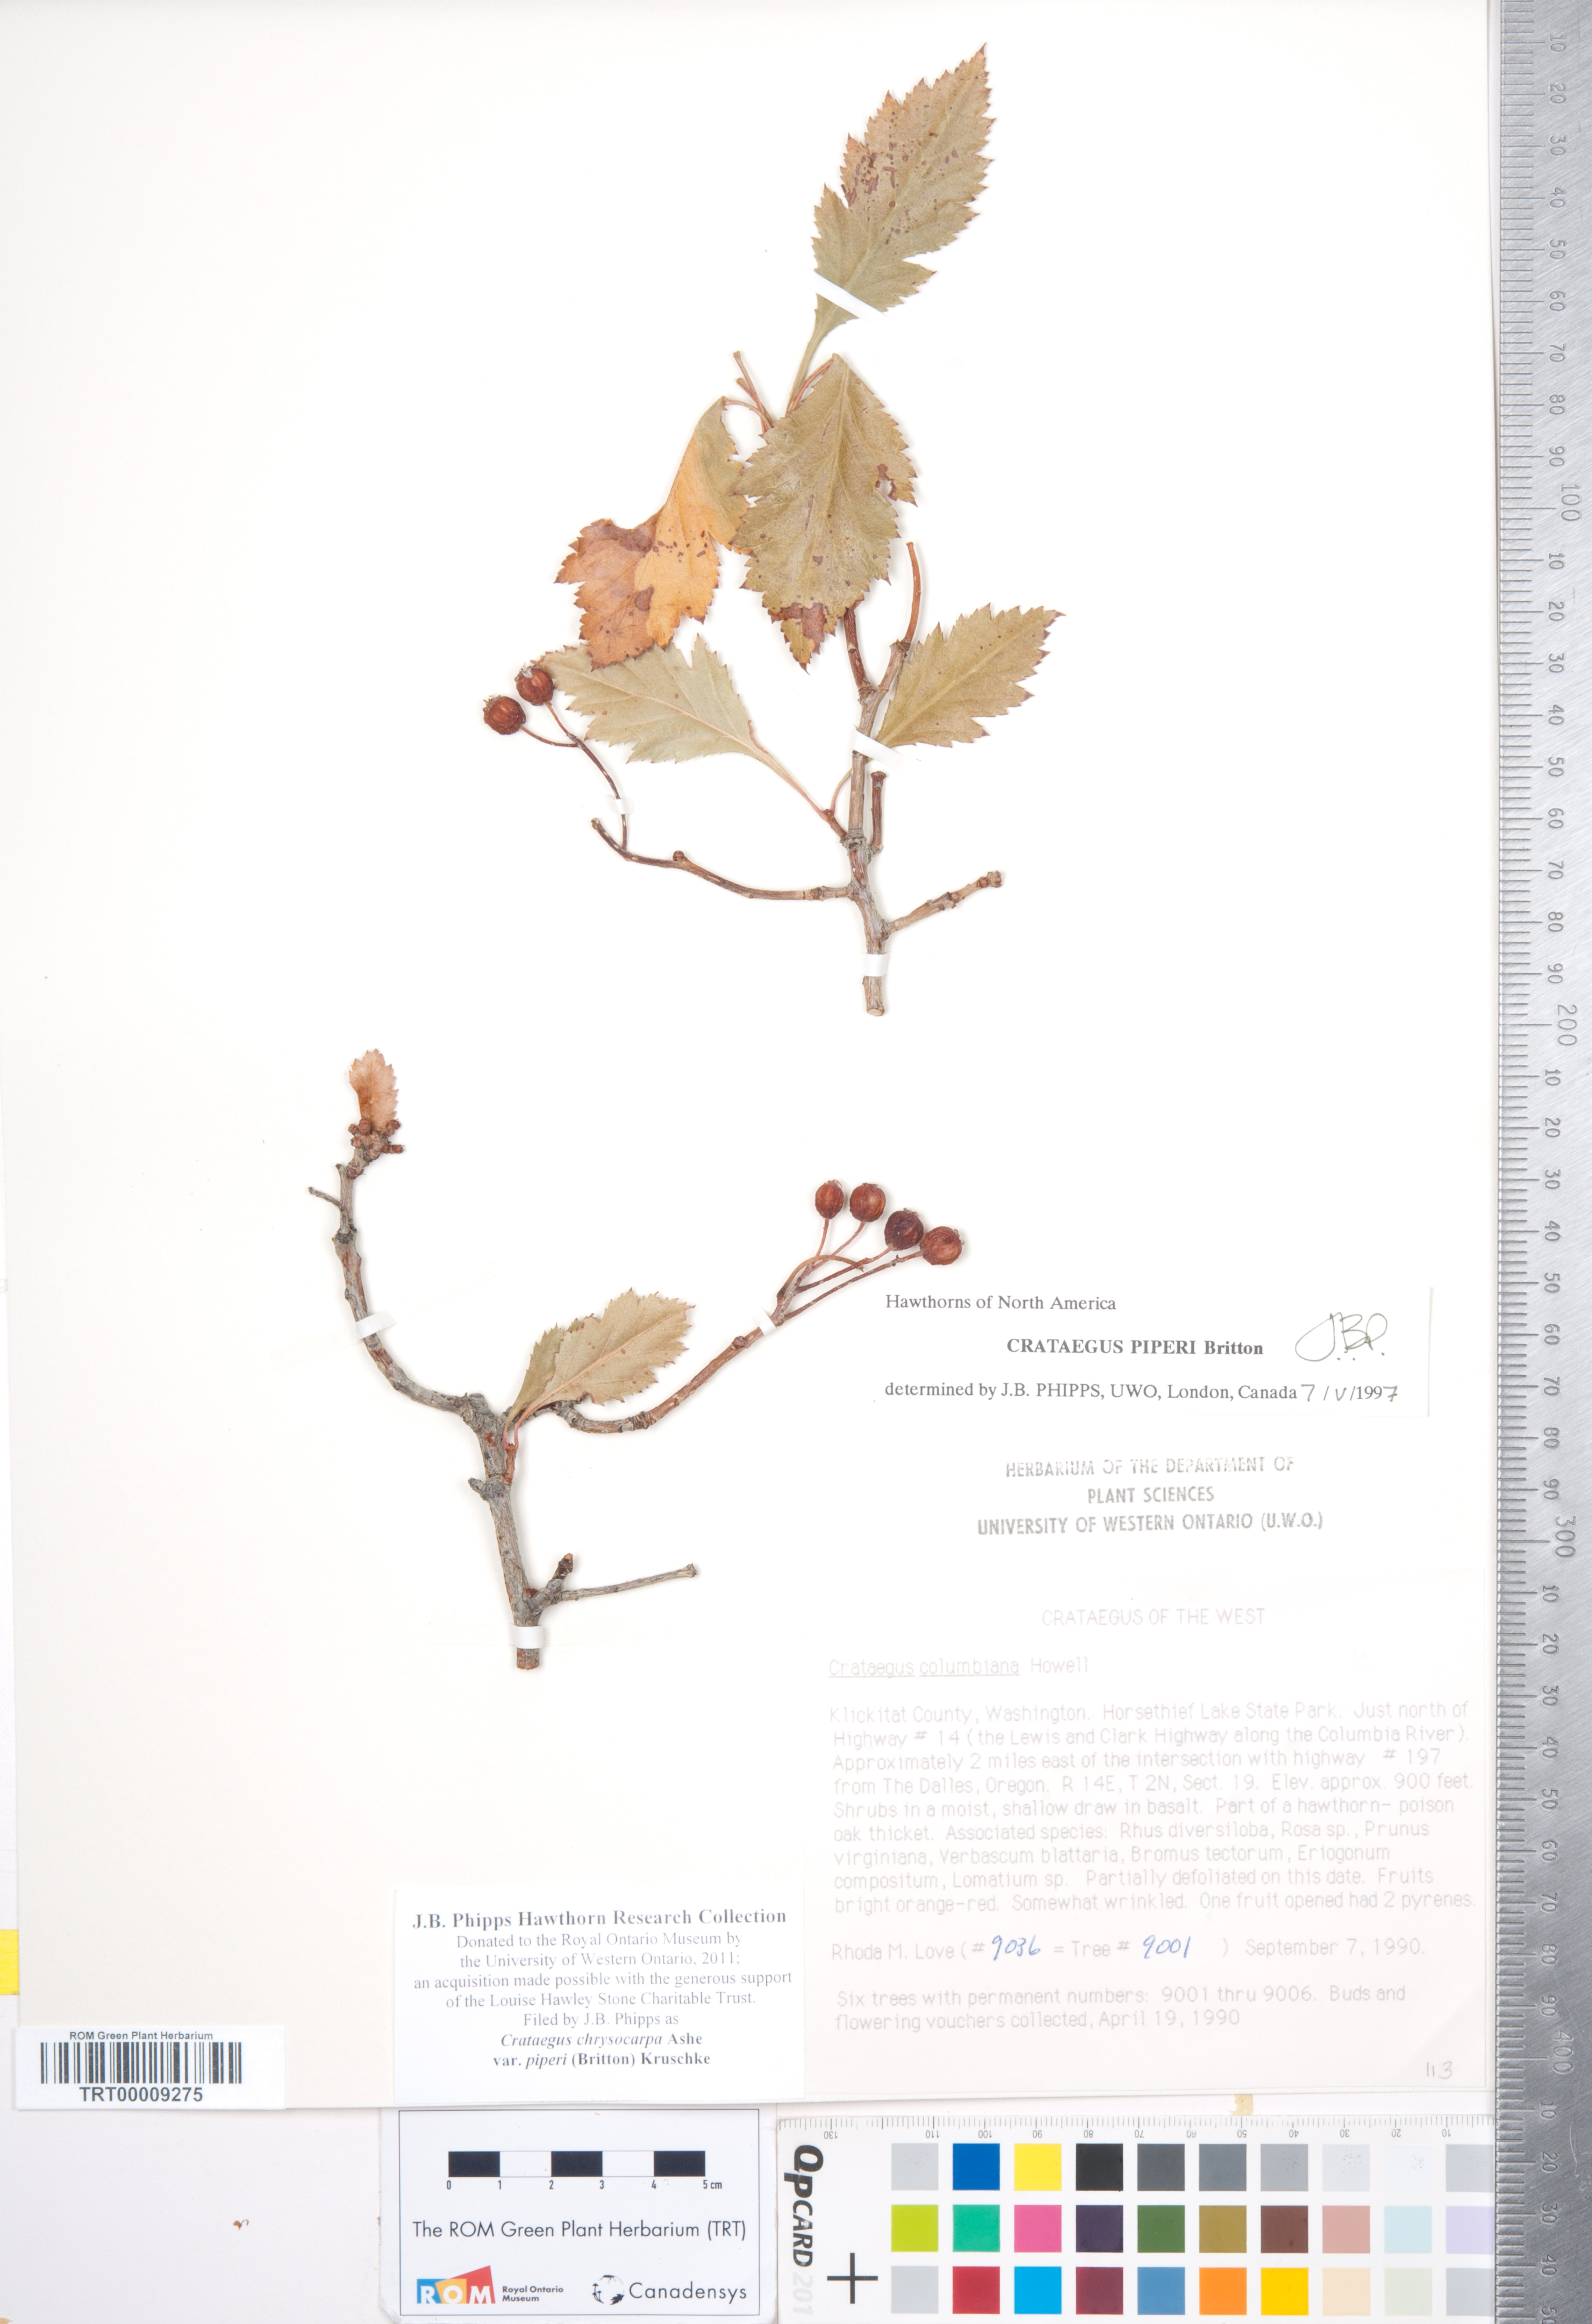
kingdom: Plantae
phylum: Tracheophyta
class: Magnoliopsida
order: Rosales
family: Rosaceae
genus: Crataegus
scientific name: Crataegus piperi
